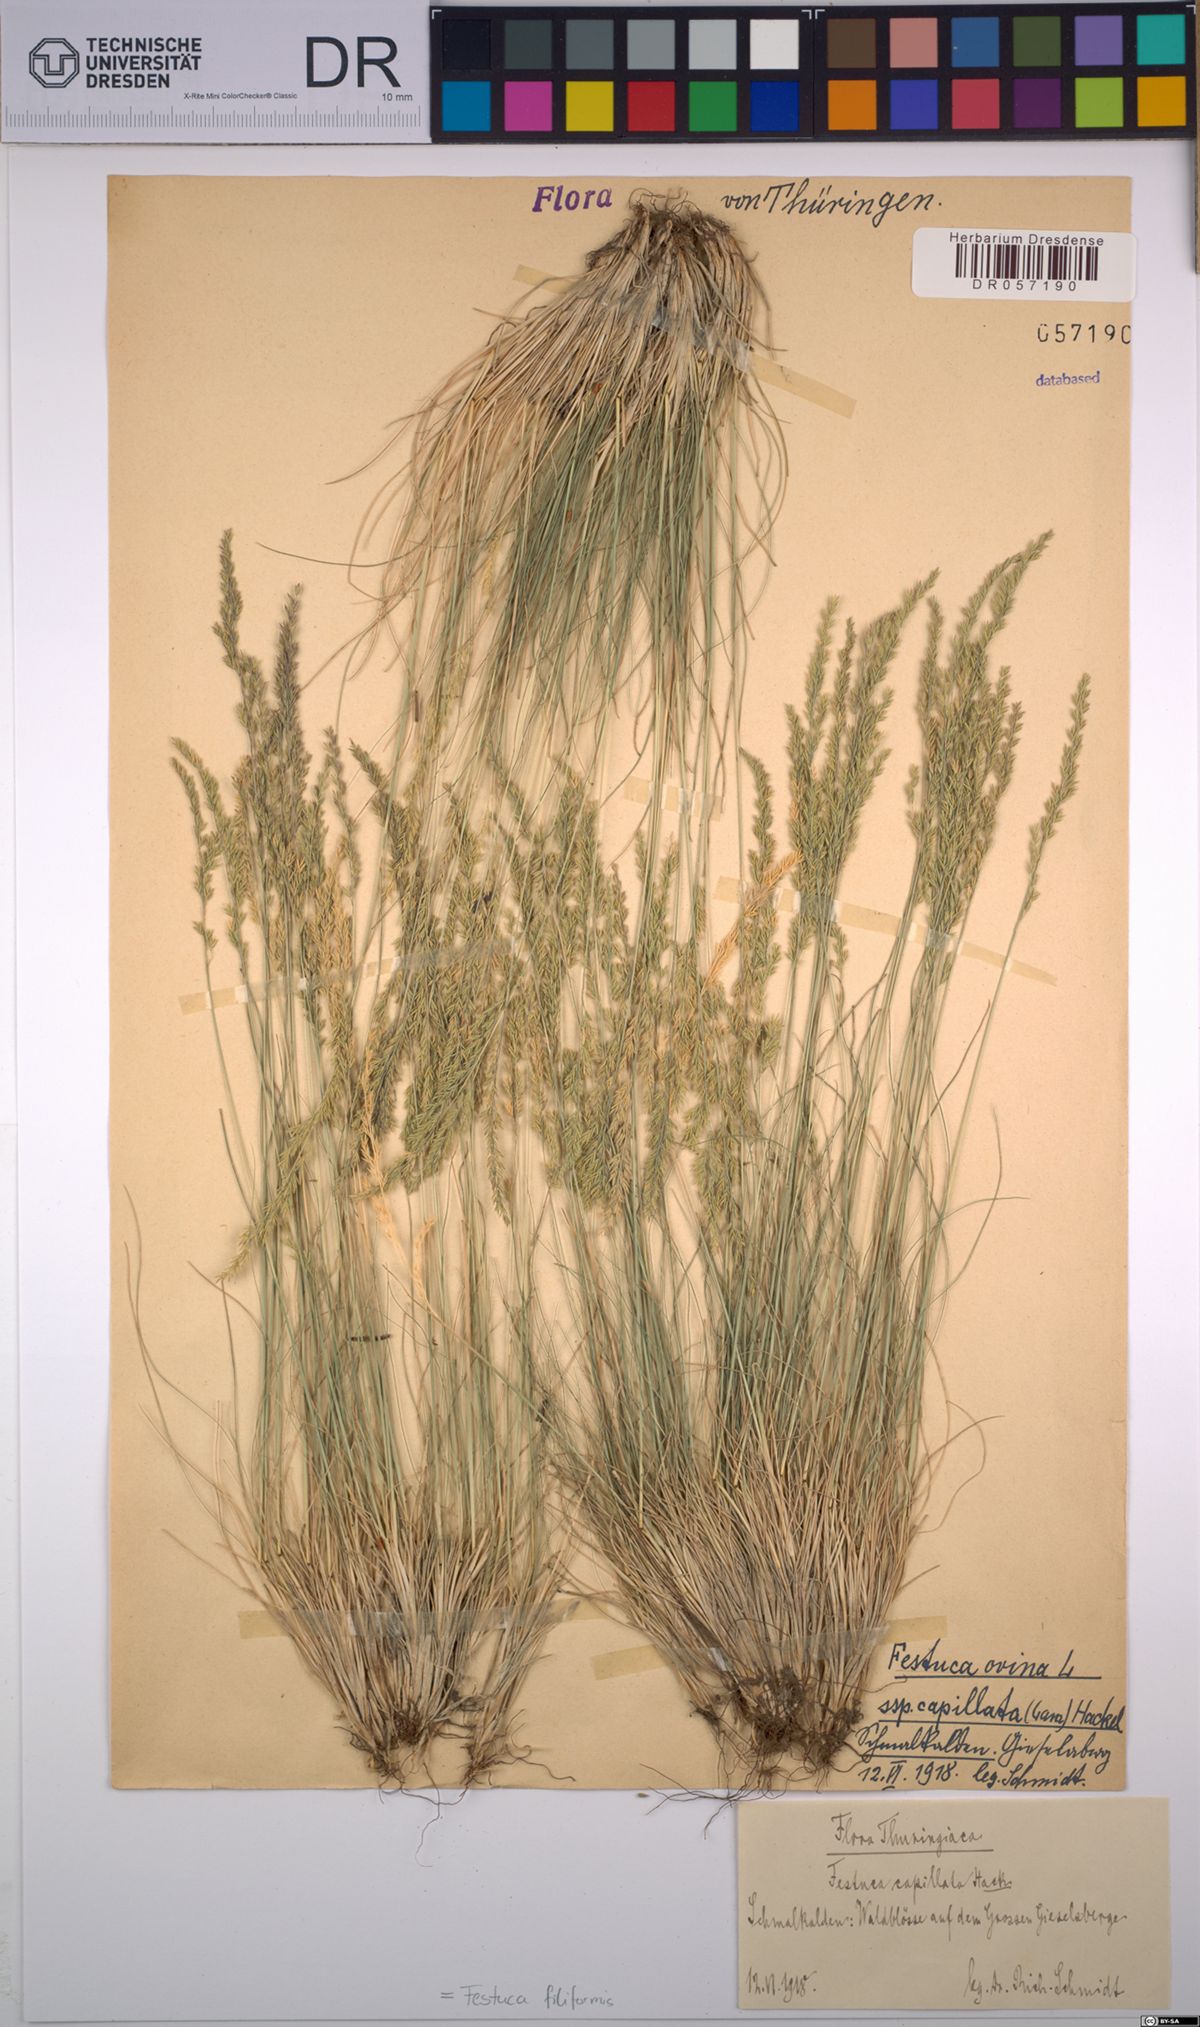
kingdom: Plantae
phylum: Tracheophyta
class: Liliopsida
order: Poales
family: Poaceae
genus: Festuca
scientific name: Festuca filiformis
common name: Fine-leaved sheep's-fescue
